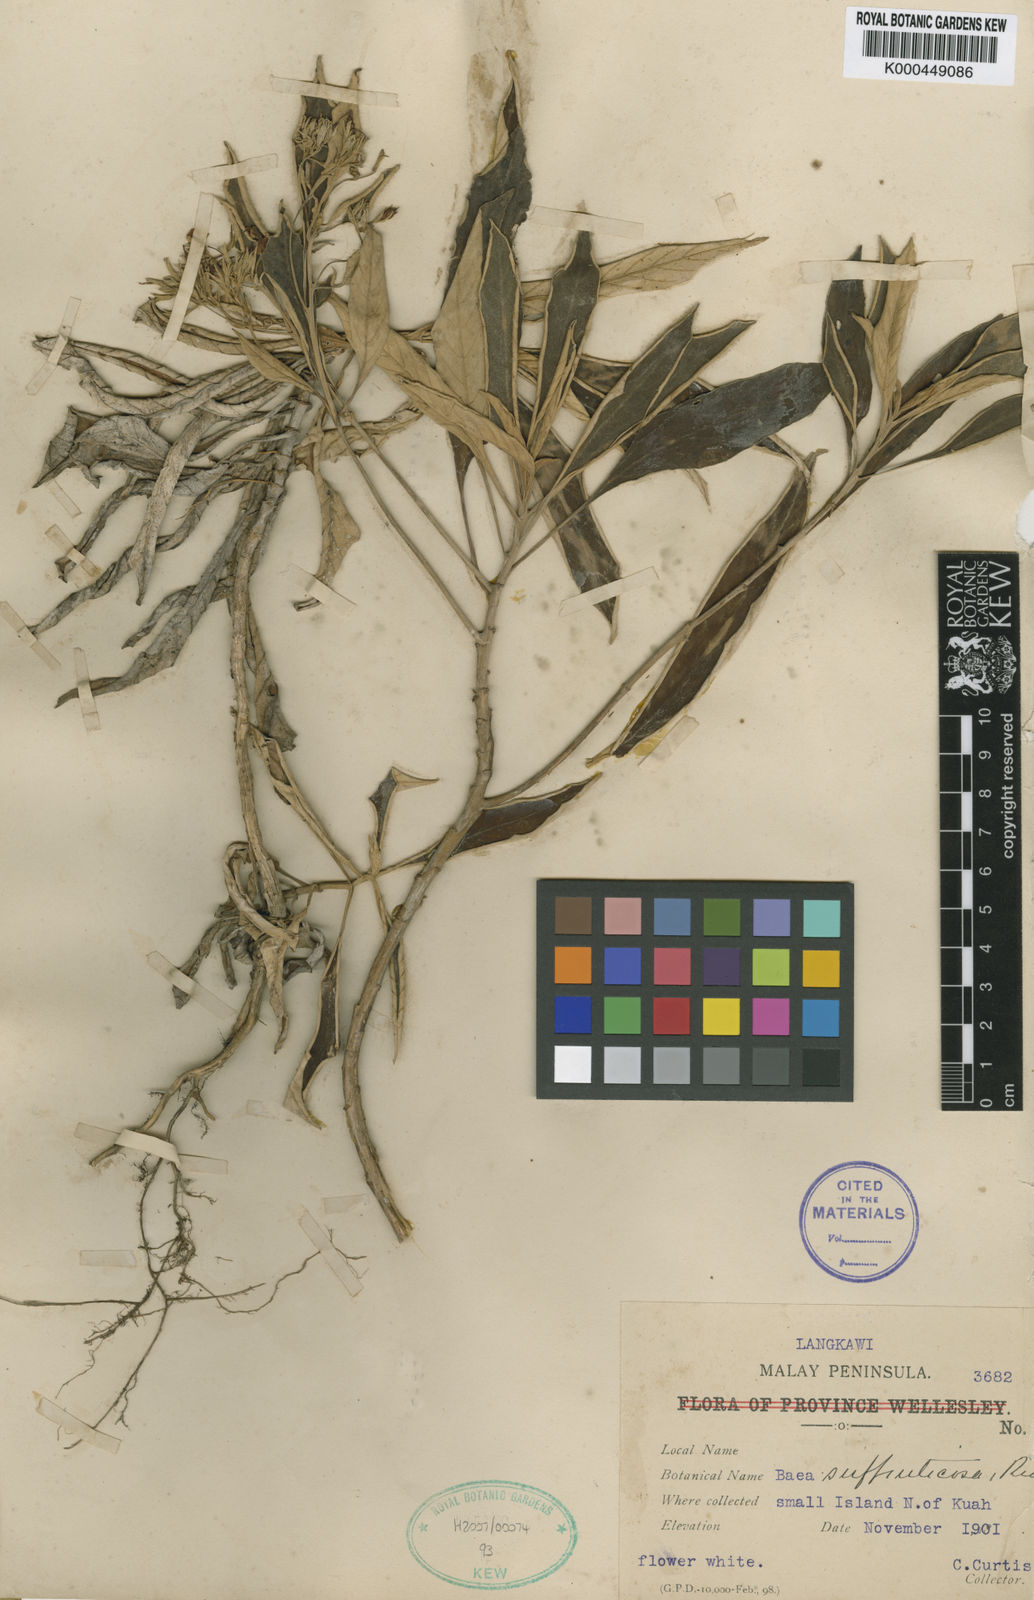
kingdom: Plantae
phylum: Tracheophyta
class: Magnoliopsida
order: Lamiales
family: Gesneriaceae
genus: Paraboea
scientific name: Paraboea suffruticosa
